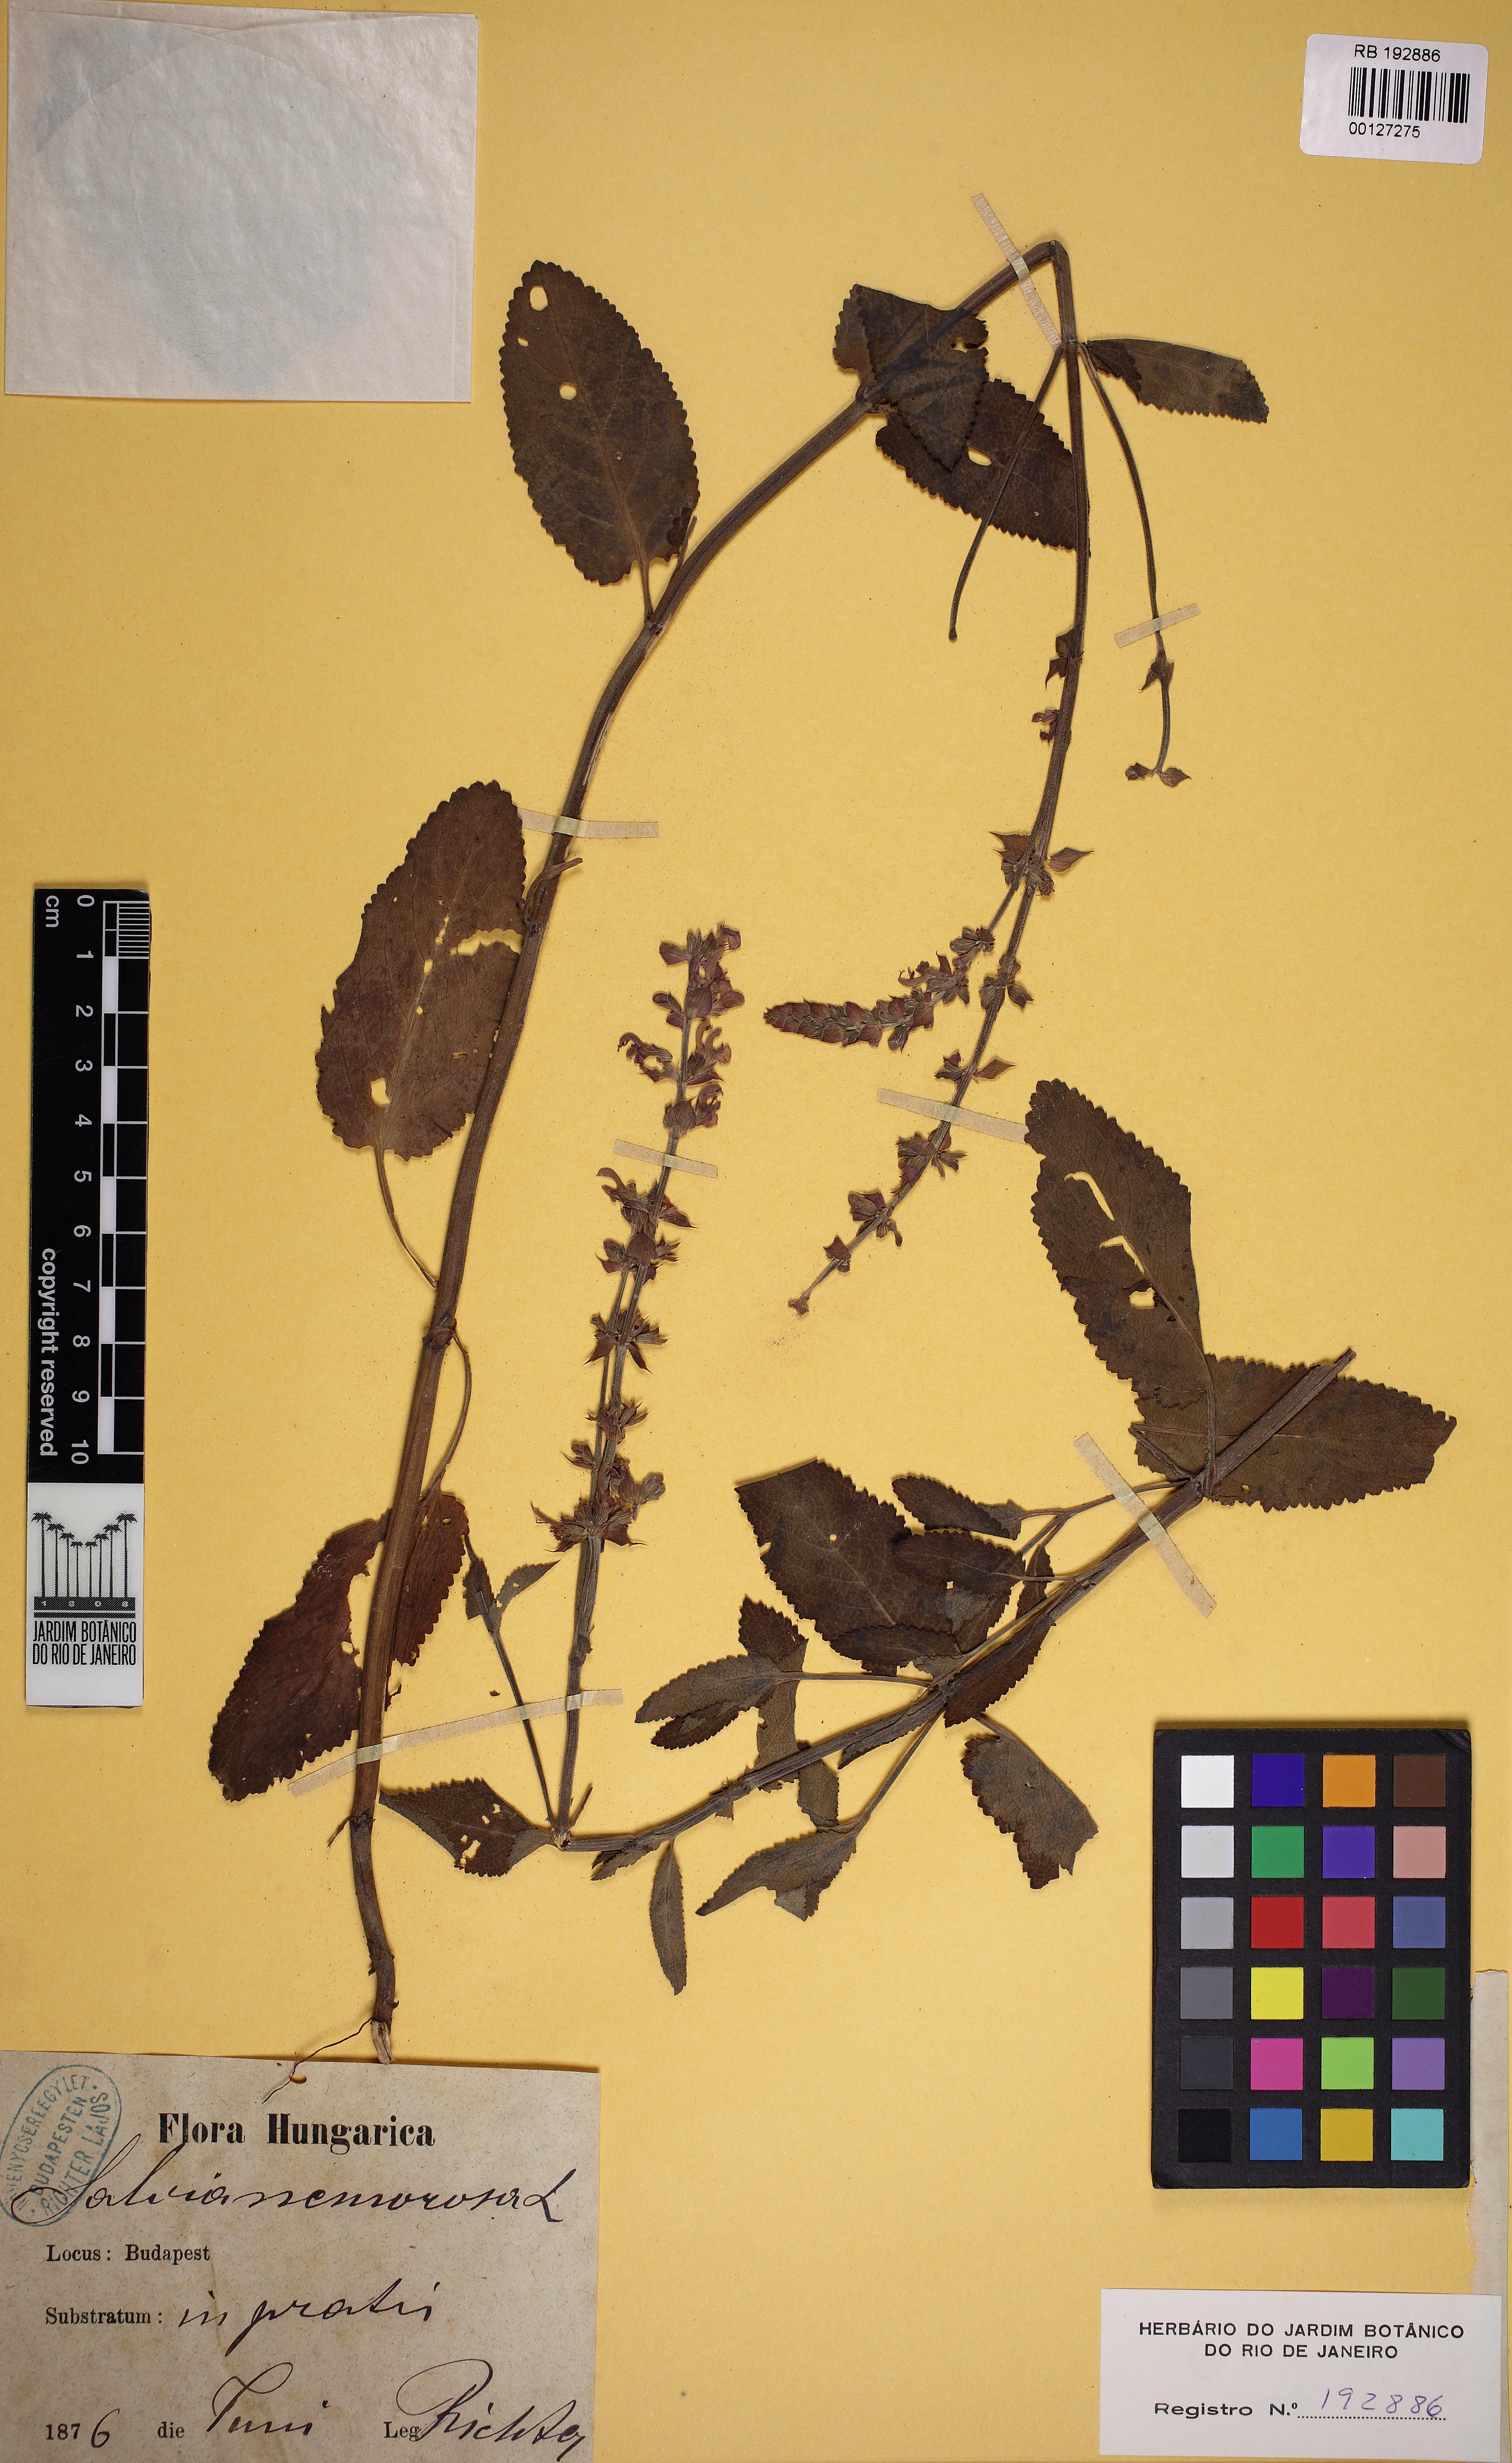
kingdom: Plantae
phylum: Tracheophyta
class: Magnoliopsida
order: Lamiales
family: Lamiaceae
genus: Salvia
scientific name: Salvia nemorosa
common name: Balkan clary
